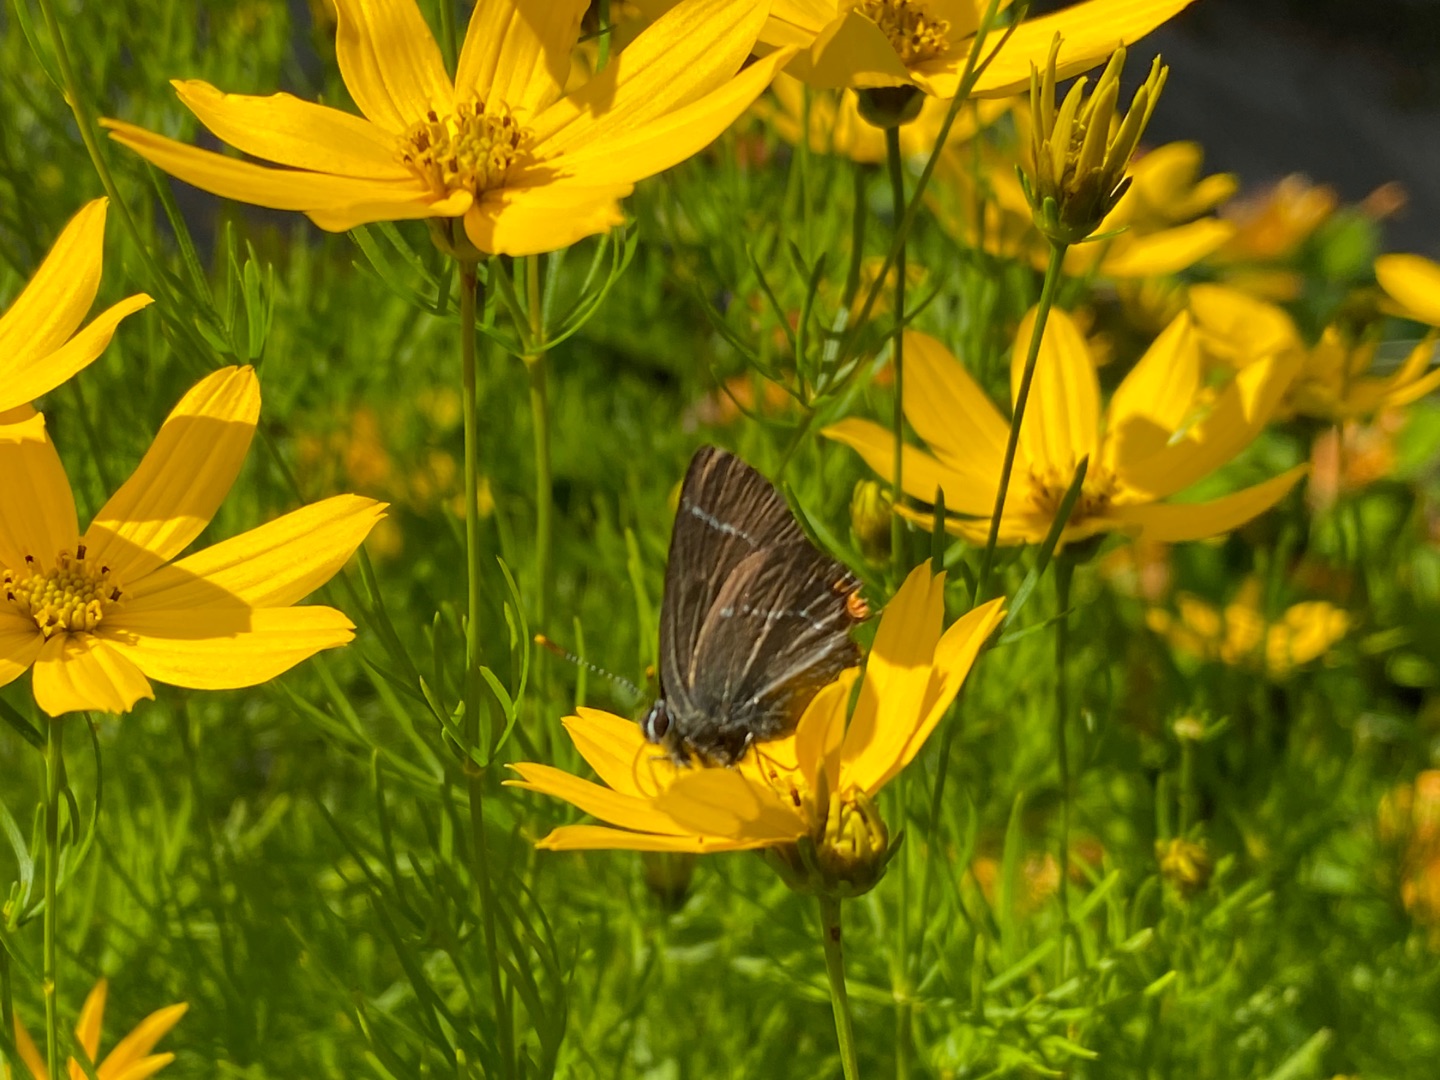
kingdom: Animalia
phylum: Arthropoda
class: Insecta
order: Lepidoptera
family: Lycaenidae
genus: Satyrium
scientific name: Satyrium w-album
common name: Det hvide W
